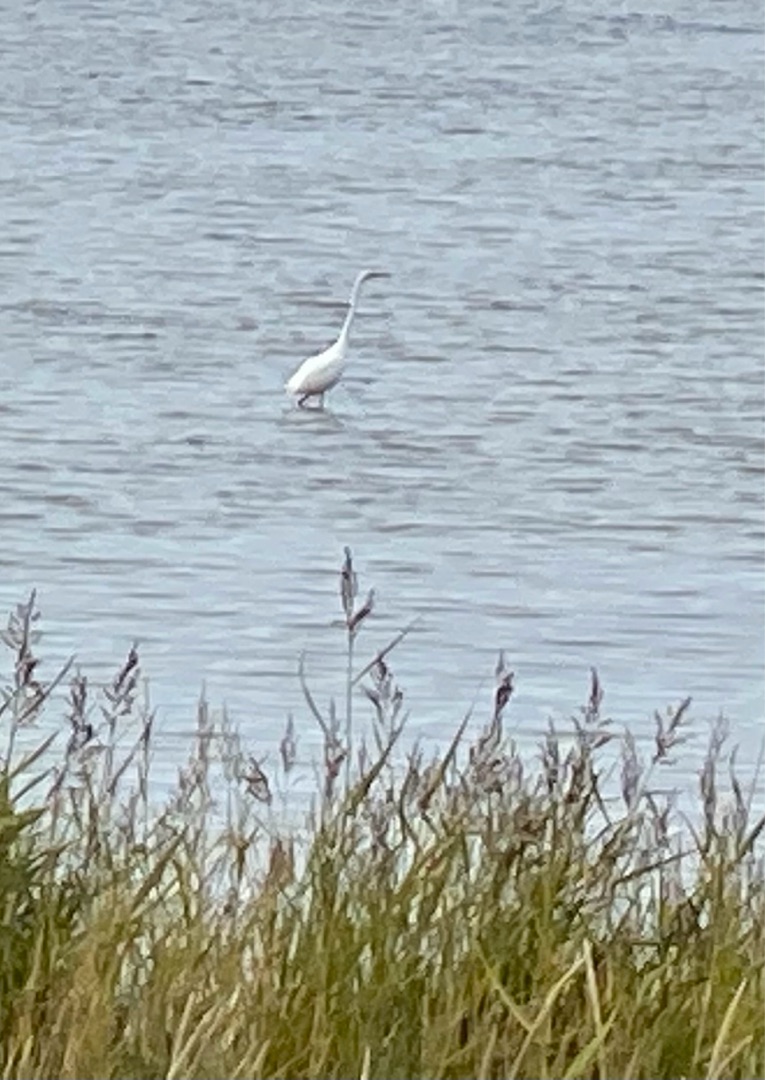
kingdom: Animalia
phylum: Chordata
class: Aves
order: Pelecaniformes
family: Ardeidae
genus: Ardea
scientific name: Ardea alba
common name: Sølvhejre
